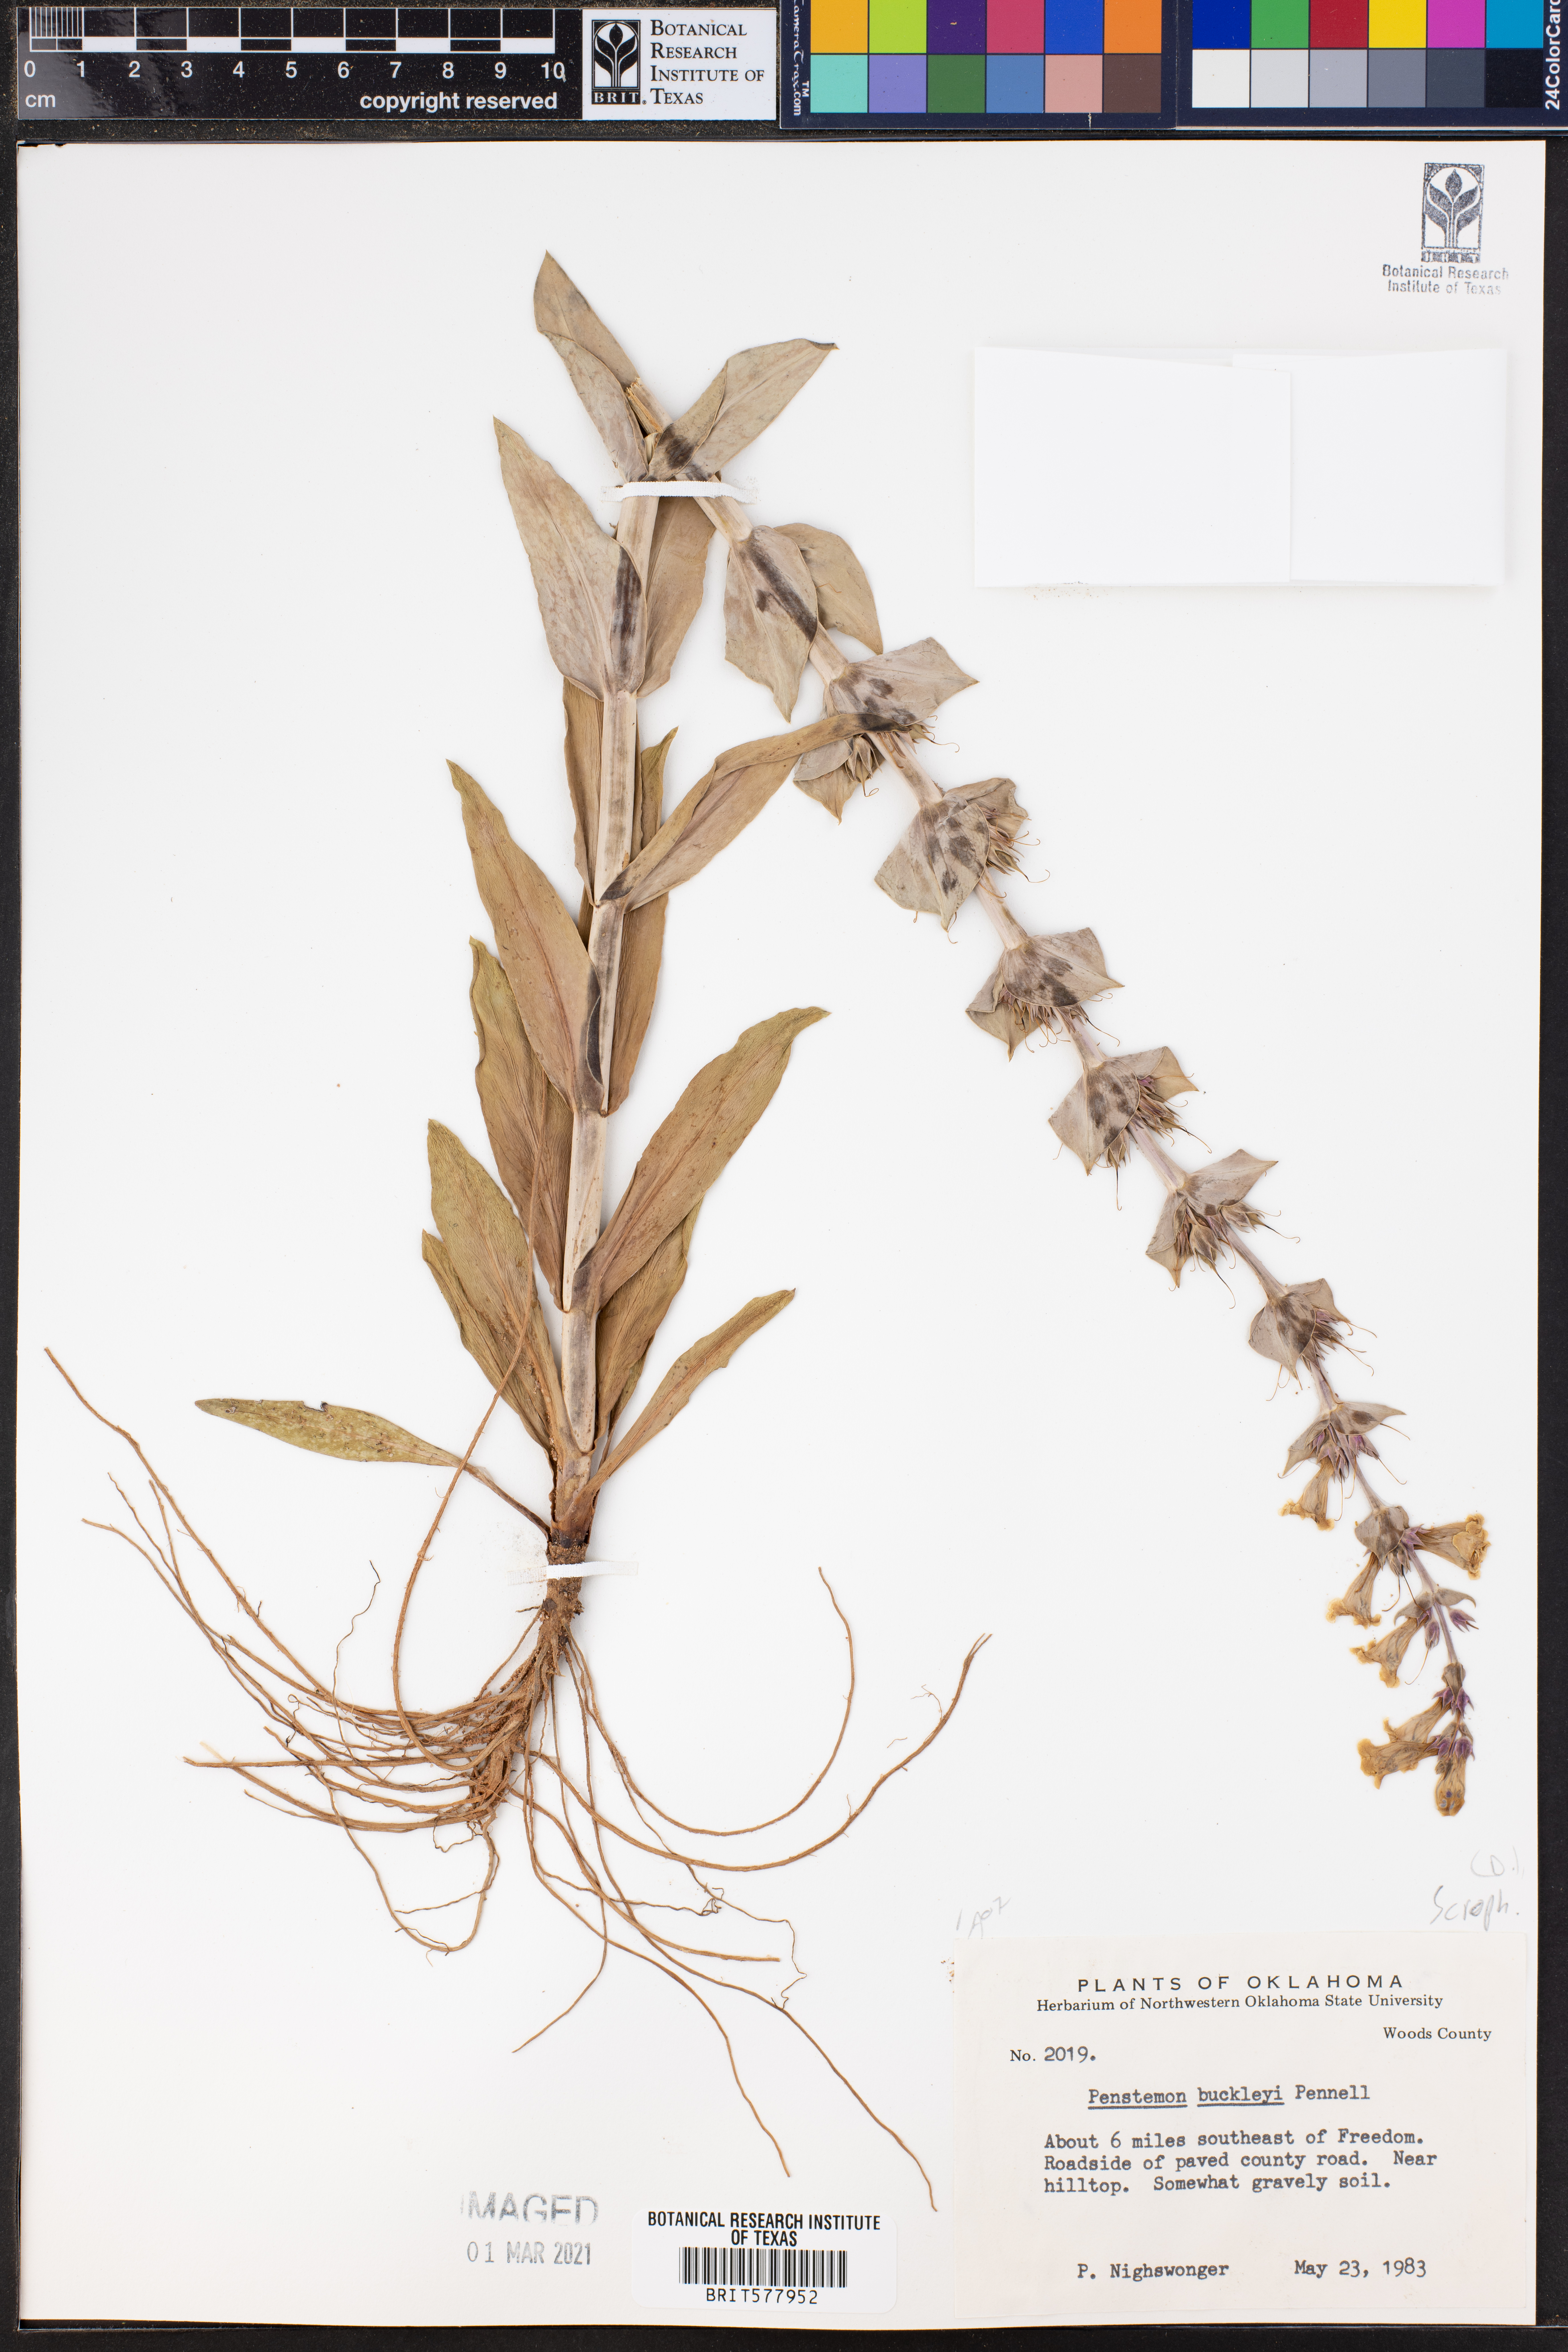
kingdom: Plantae
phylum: Tracheophyta
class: Magnoliopsida
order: Lamiales
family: Plantaginaceae
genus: Penstemon
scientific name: Penstemon buckleyi
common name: Buckley's penstemon
